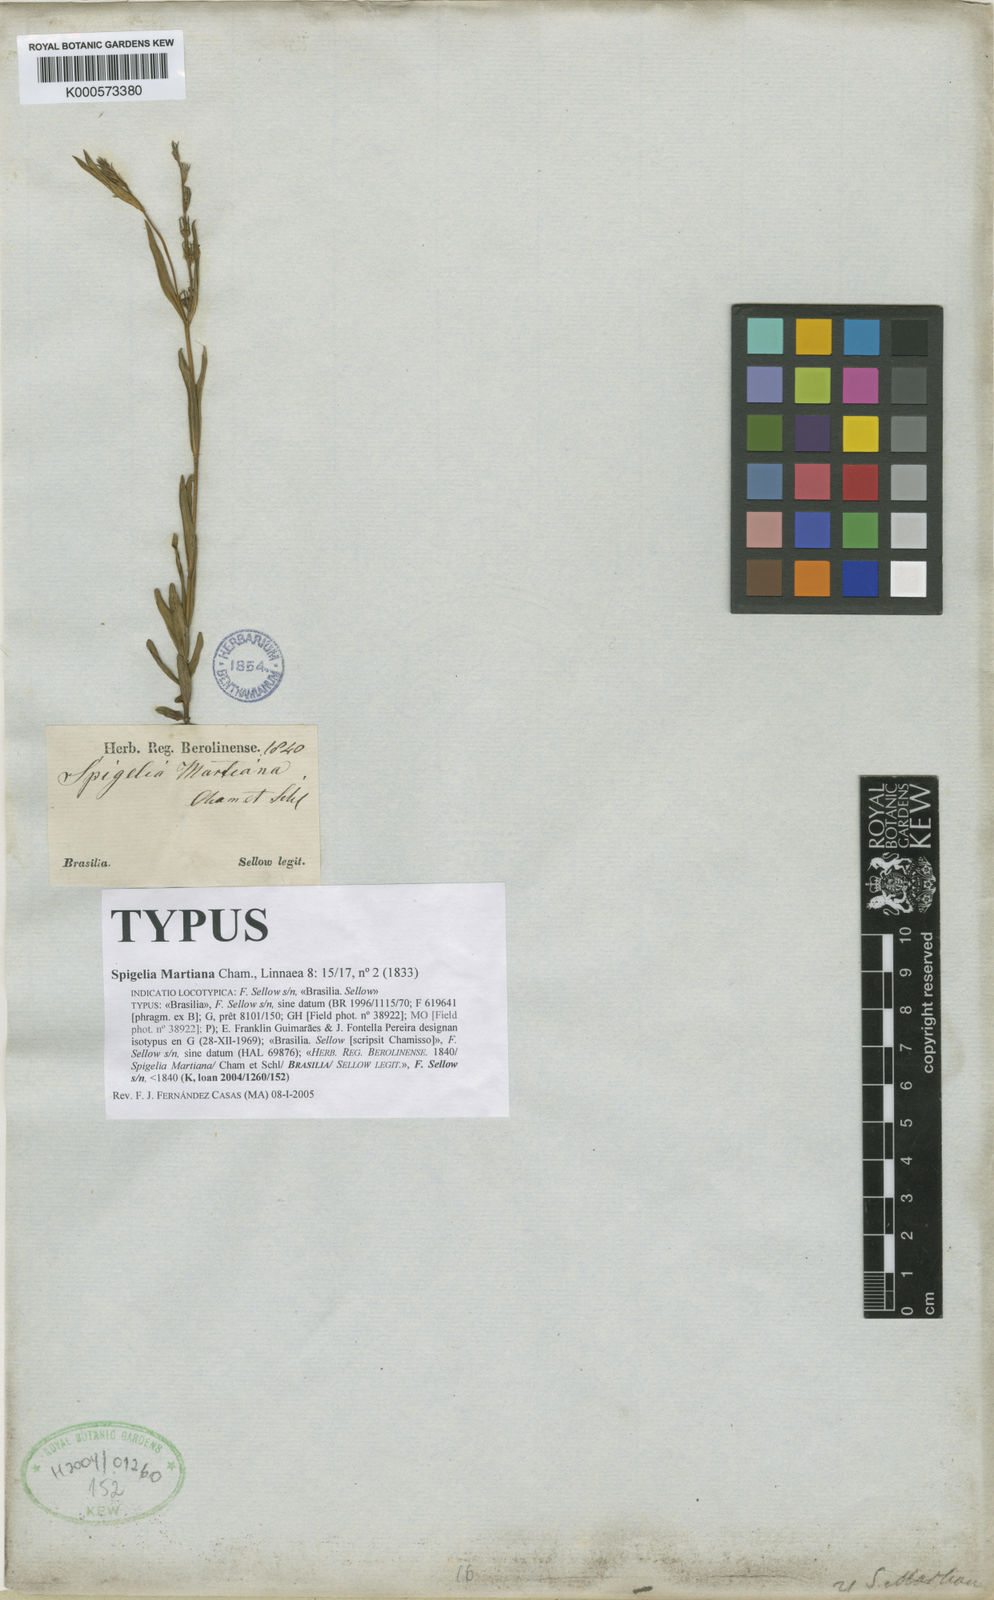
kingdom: Plantae
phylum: Tracheophyta
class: Magnoliopsida
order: Gentianales
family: Loganiaceae
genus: Spigelia
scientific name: Spigelia martiana
